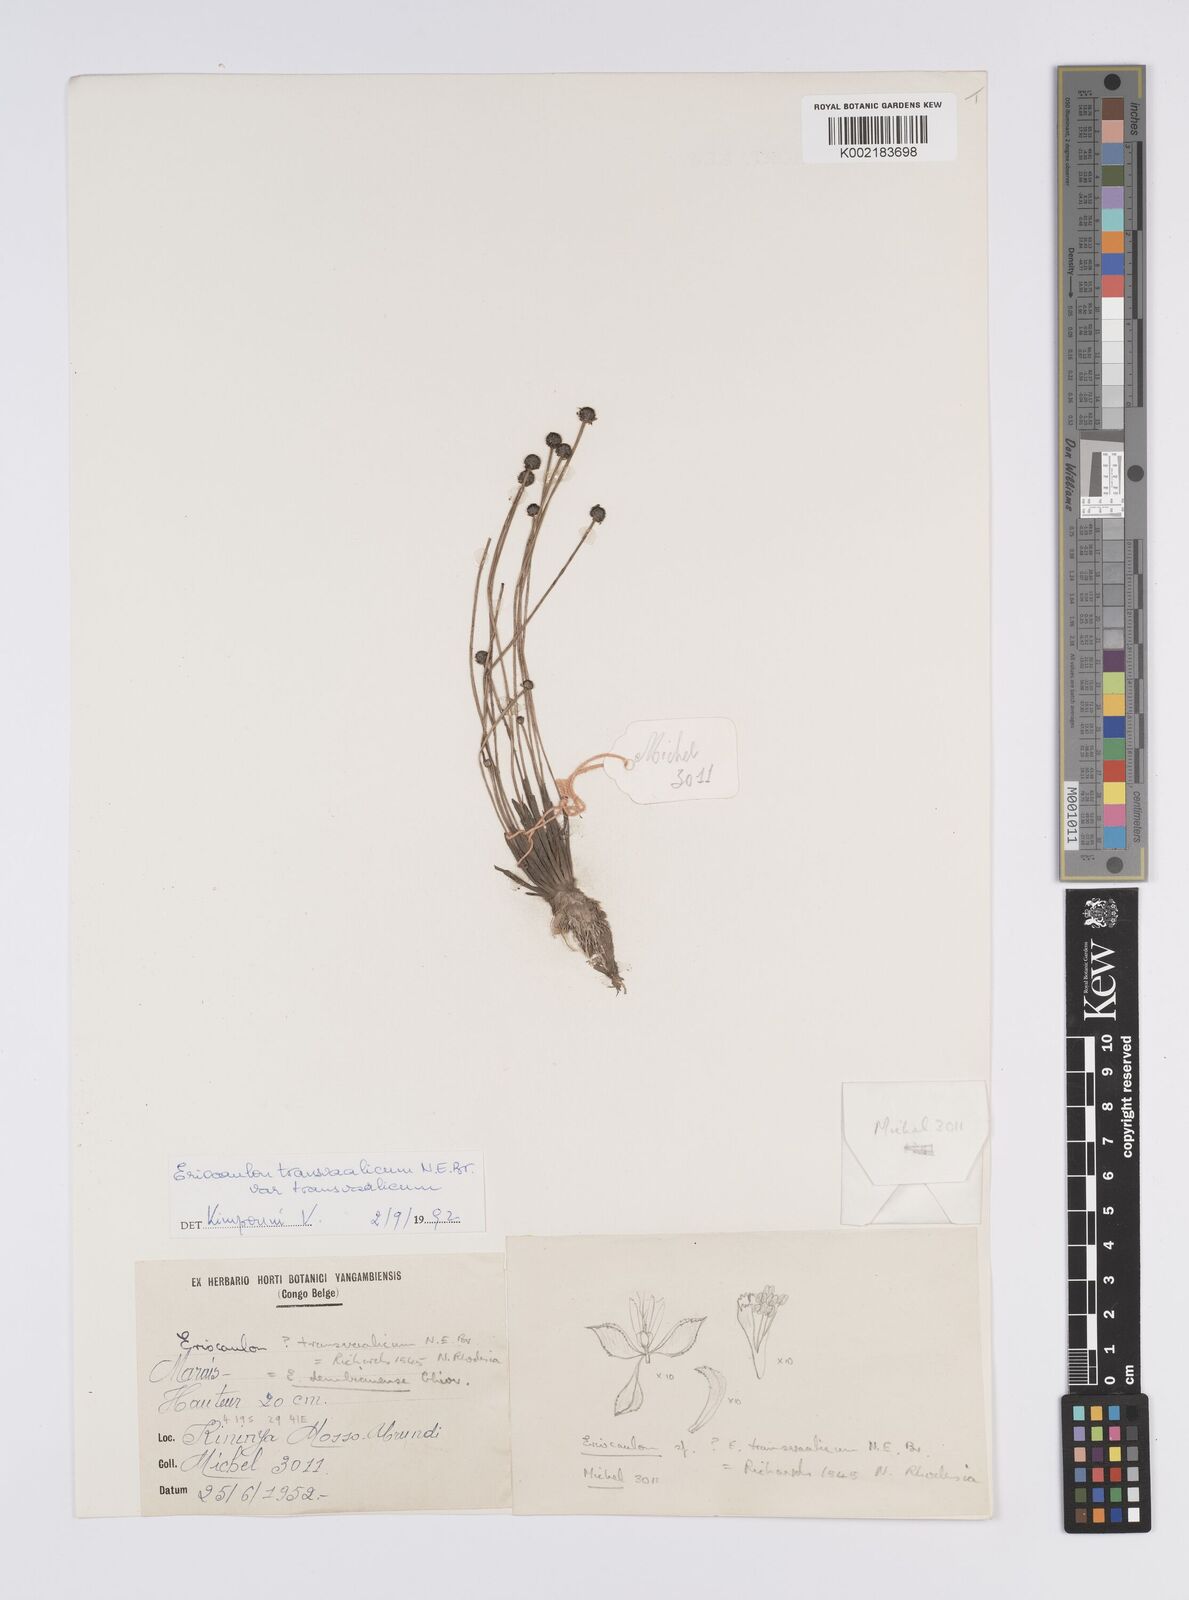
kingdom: Plantae
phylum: Tracheophyta
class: Liliopsida
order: Poales
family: Eriocaulaceae
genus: Eriocaulon
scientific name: Eriocaulon transvaalicum
